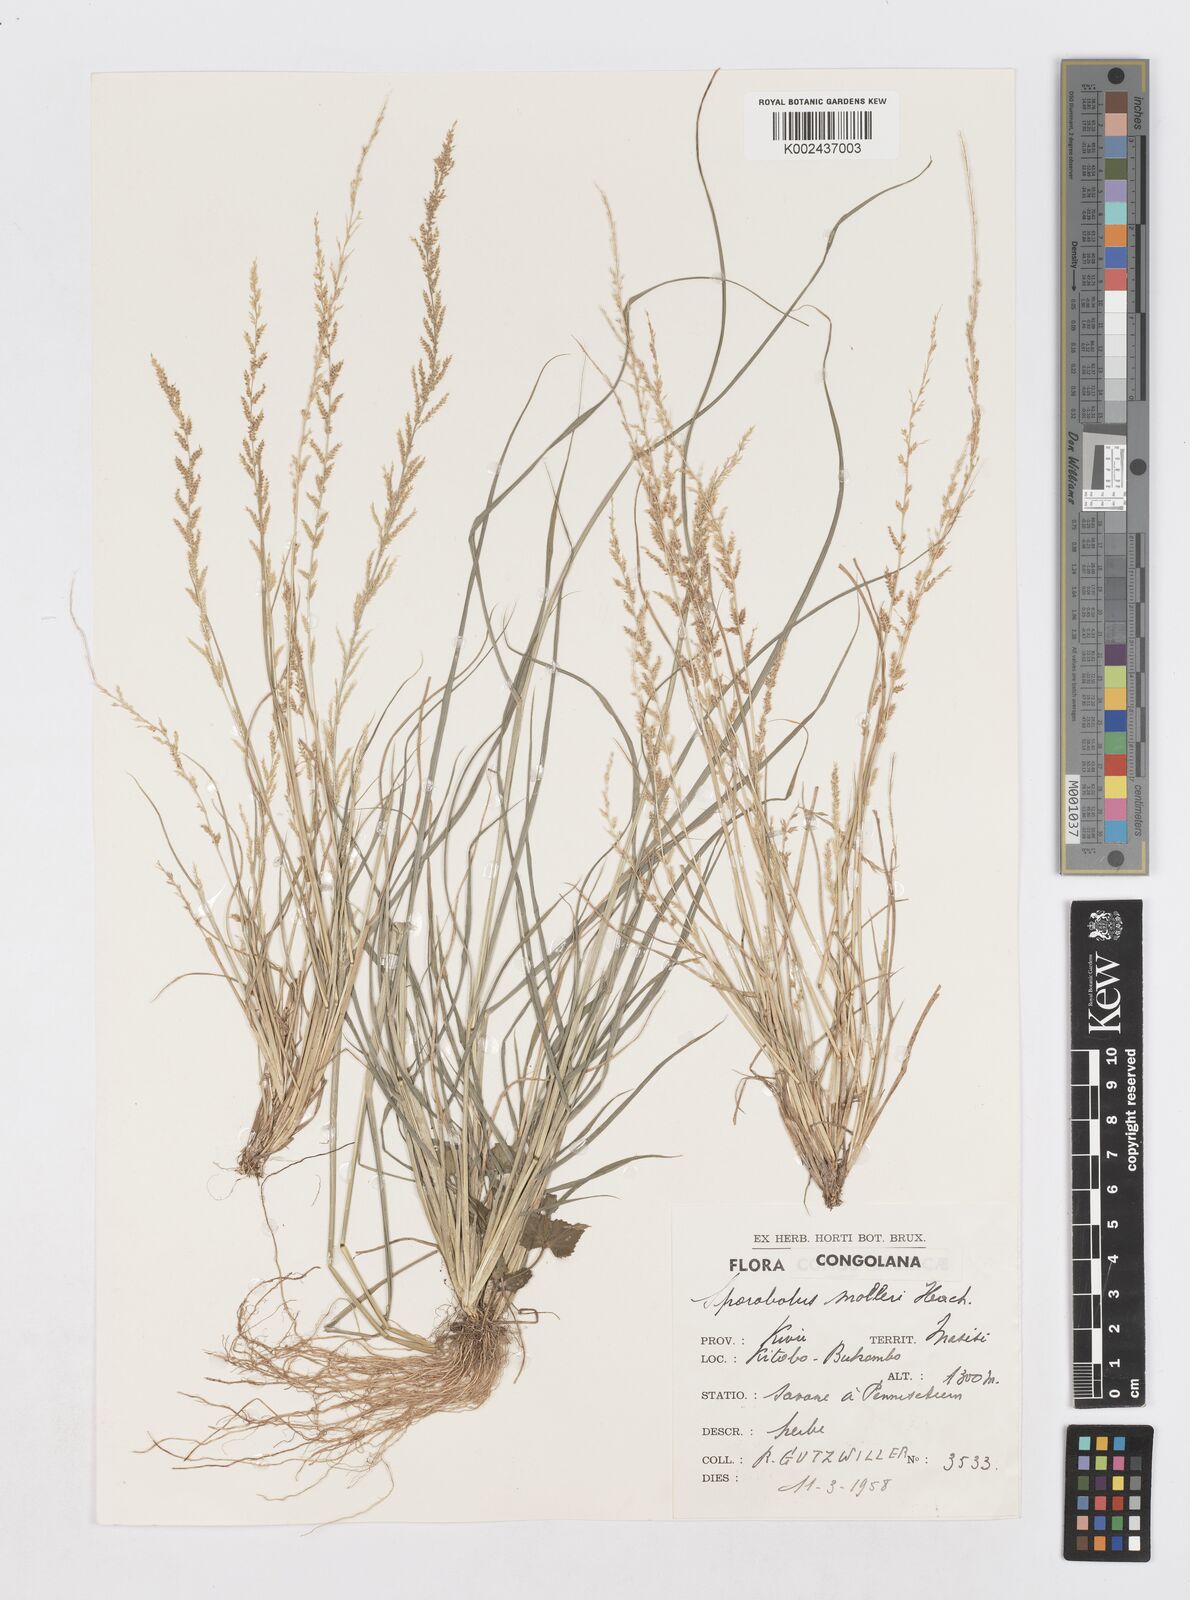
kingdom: Plantae
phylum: Tracheophyta
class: Liliopsida
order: Poales
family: Poaceae
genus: Sporobolus
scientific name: Sporobolus molleri
